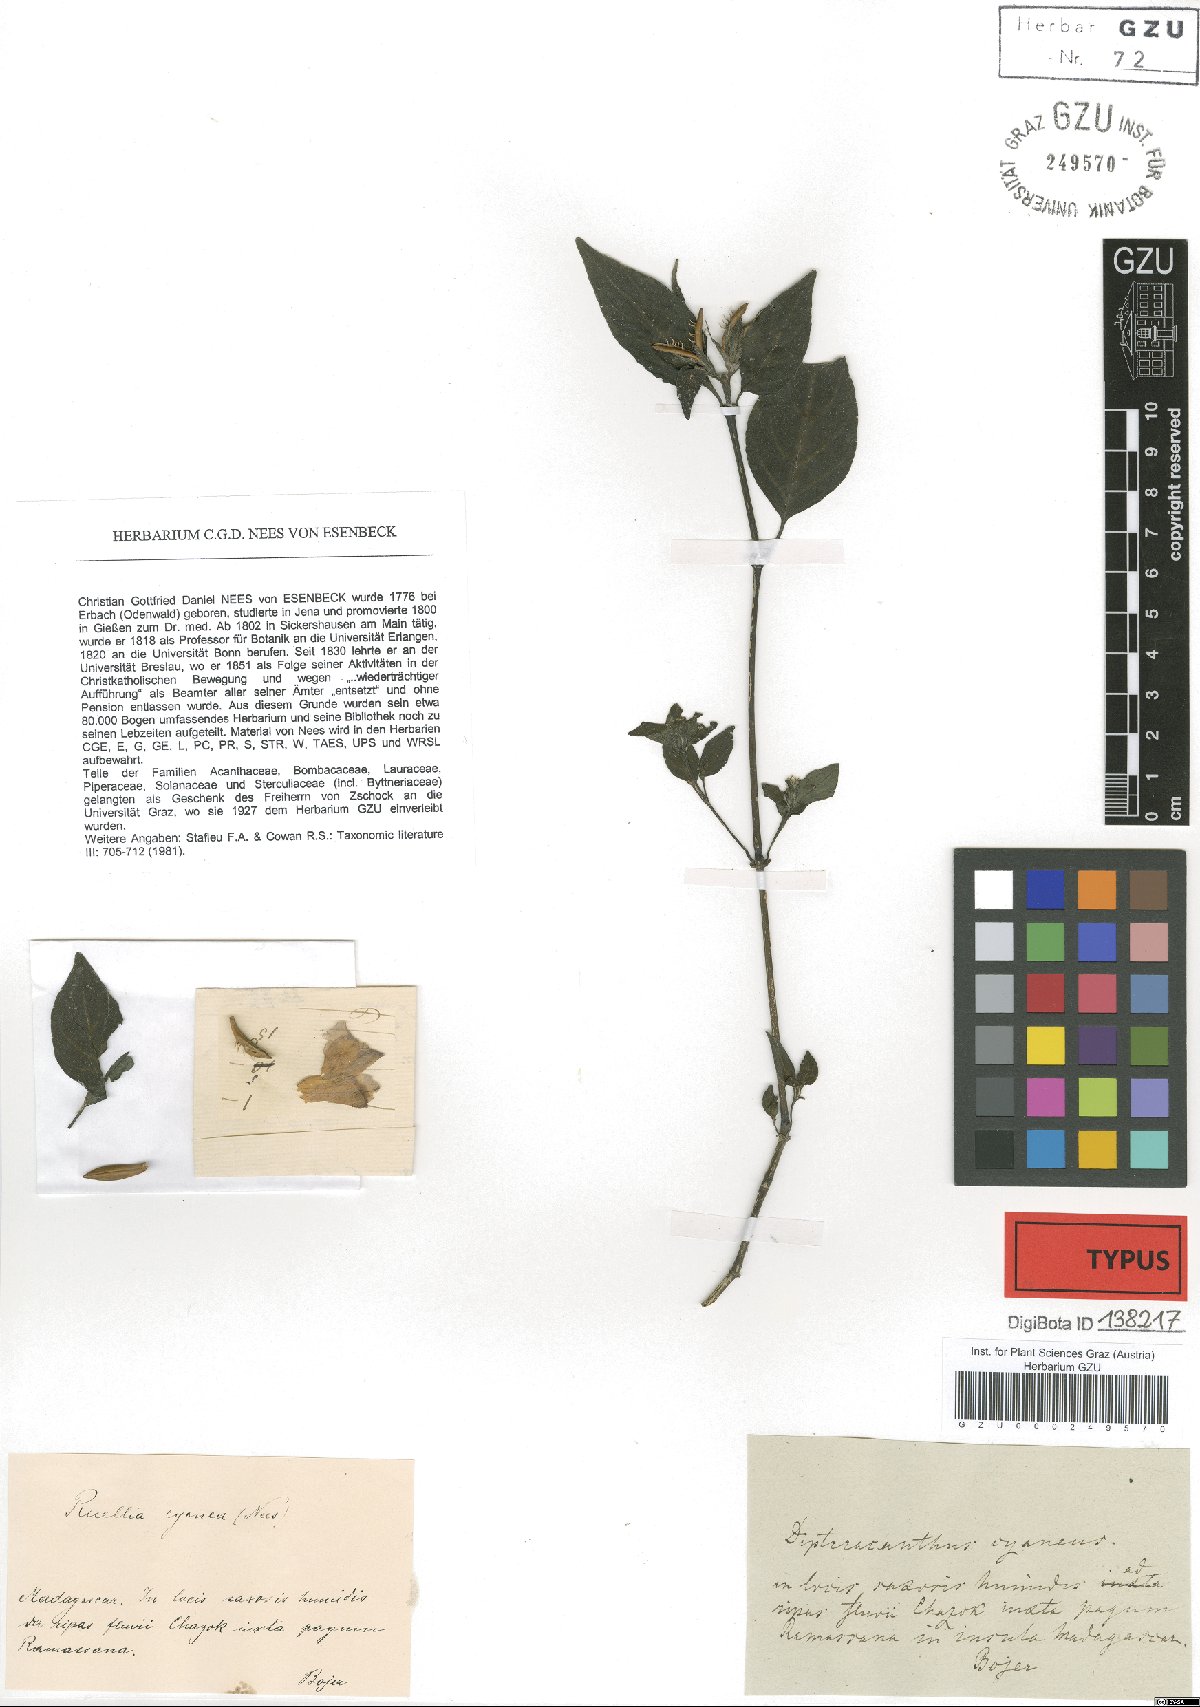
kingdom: Plantae
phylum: Tracheophyta
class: Magnoliopsida
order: Lamiales
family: Acanthaceae
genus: Ruellia
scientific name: Ruellia cyanea
